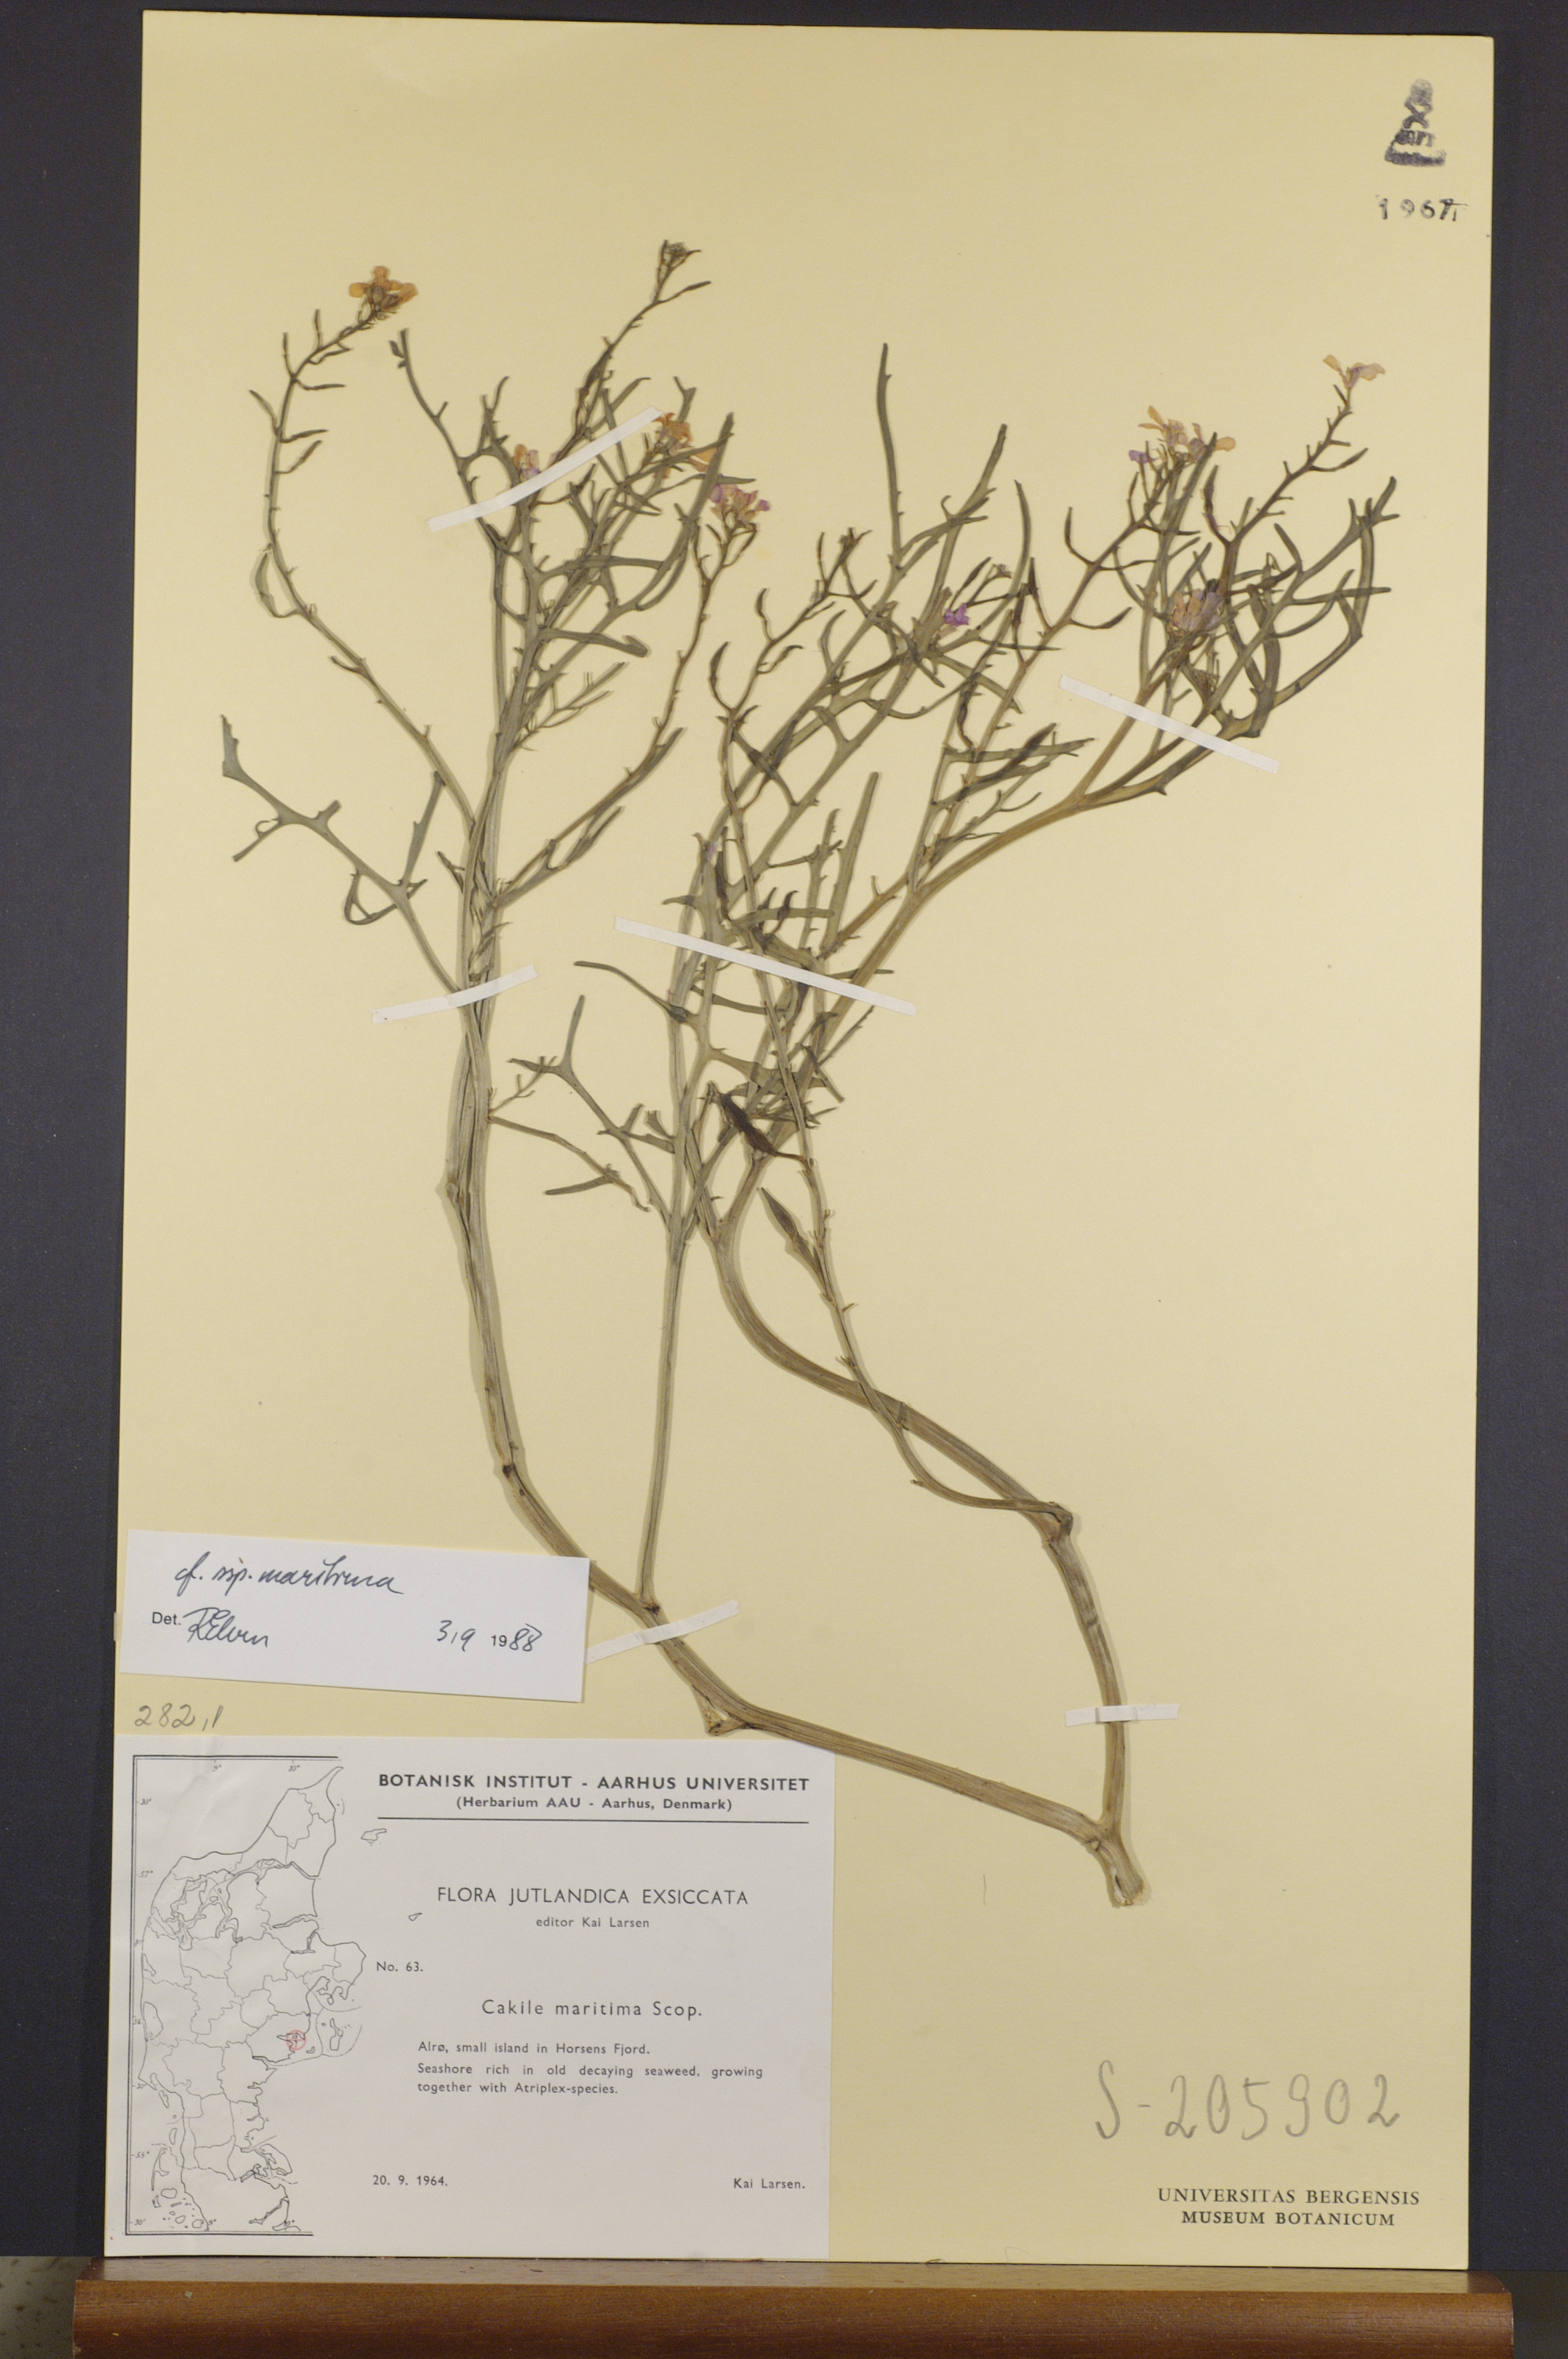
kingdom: Plantae
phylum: Tracheophyta
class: Magnoliopsida
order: Brassicales
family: Brassicaceae
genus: Cakile
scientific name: Cakile maritima
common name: Sea rocket
